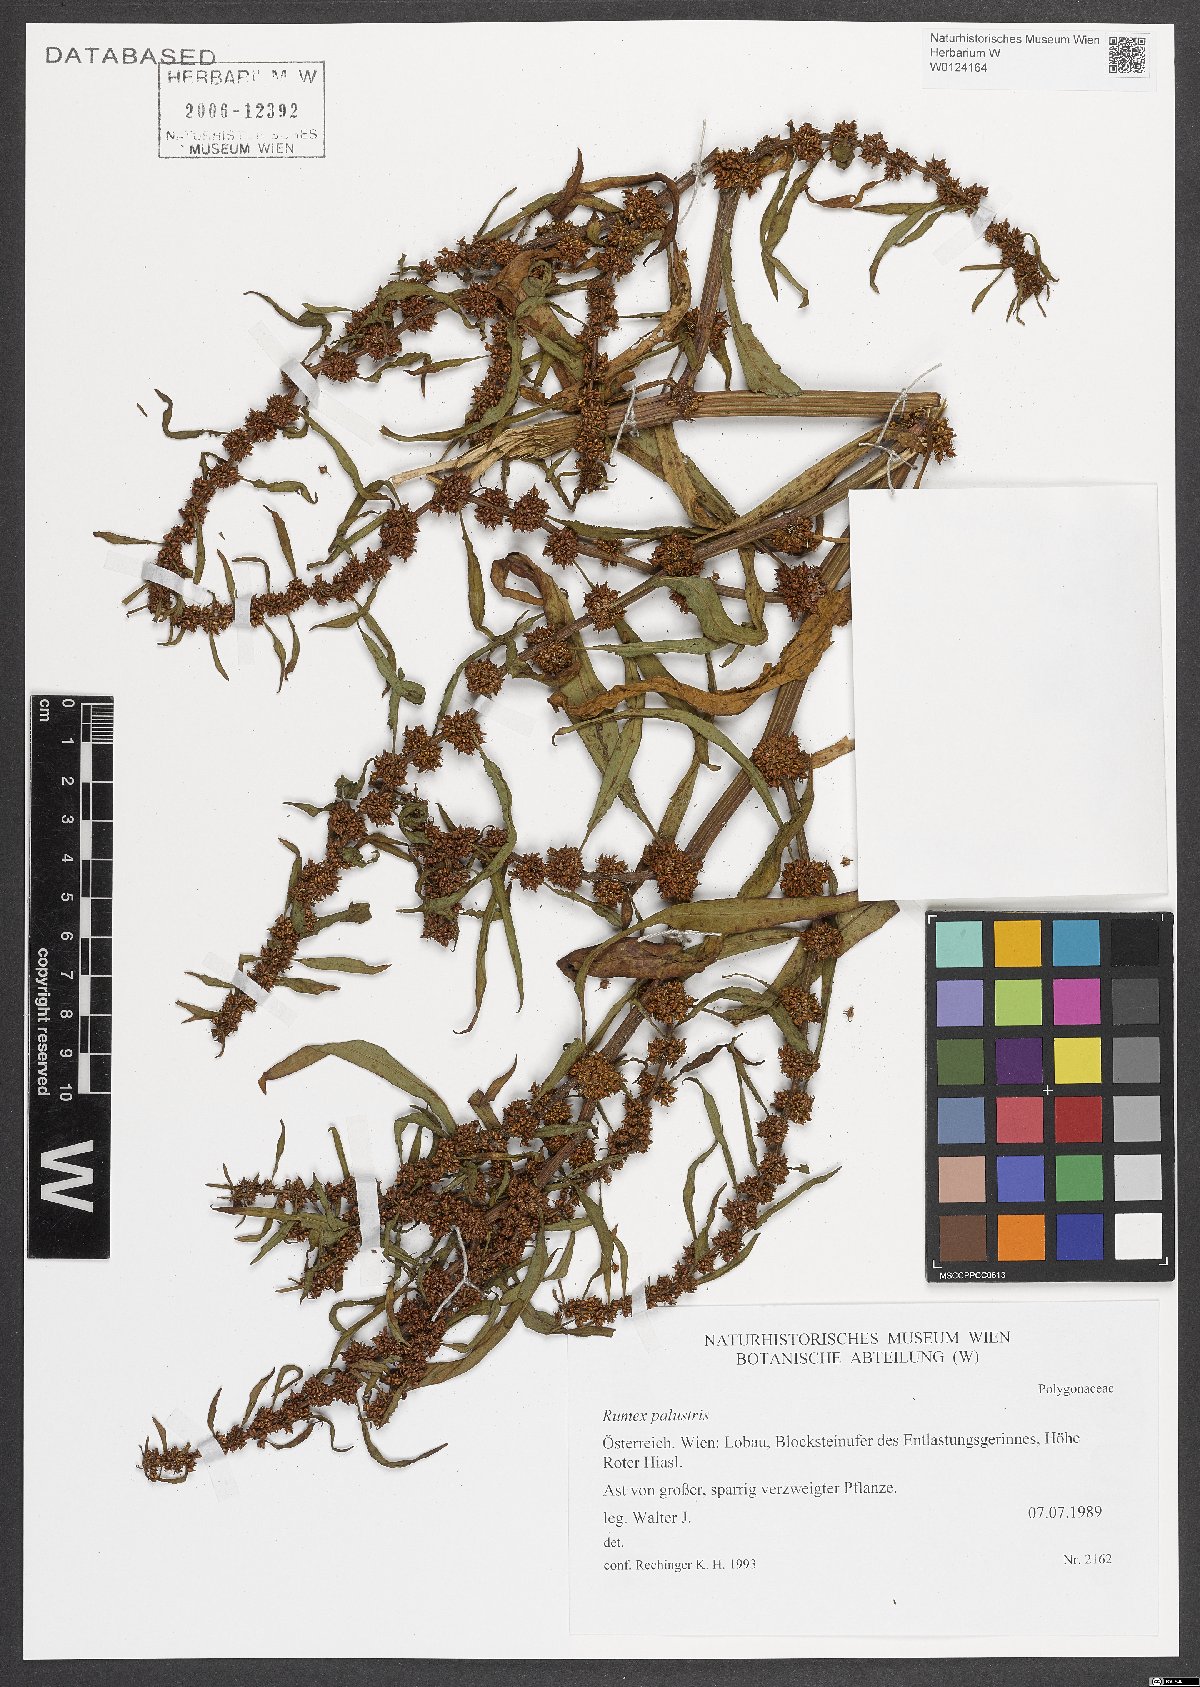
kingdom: Plantae
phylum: Tracheophyta
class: Magnoliopsida
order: Caryophyllales
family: Polygonaceae
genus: Rumex
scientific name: Rumex palustris
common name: Marsh dock
